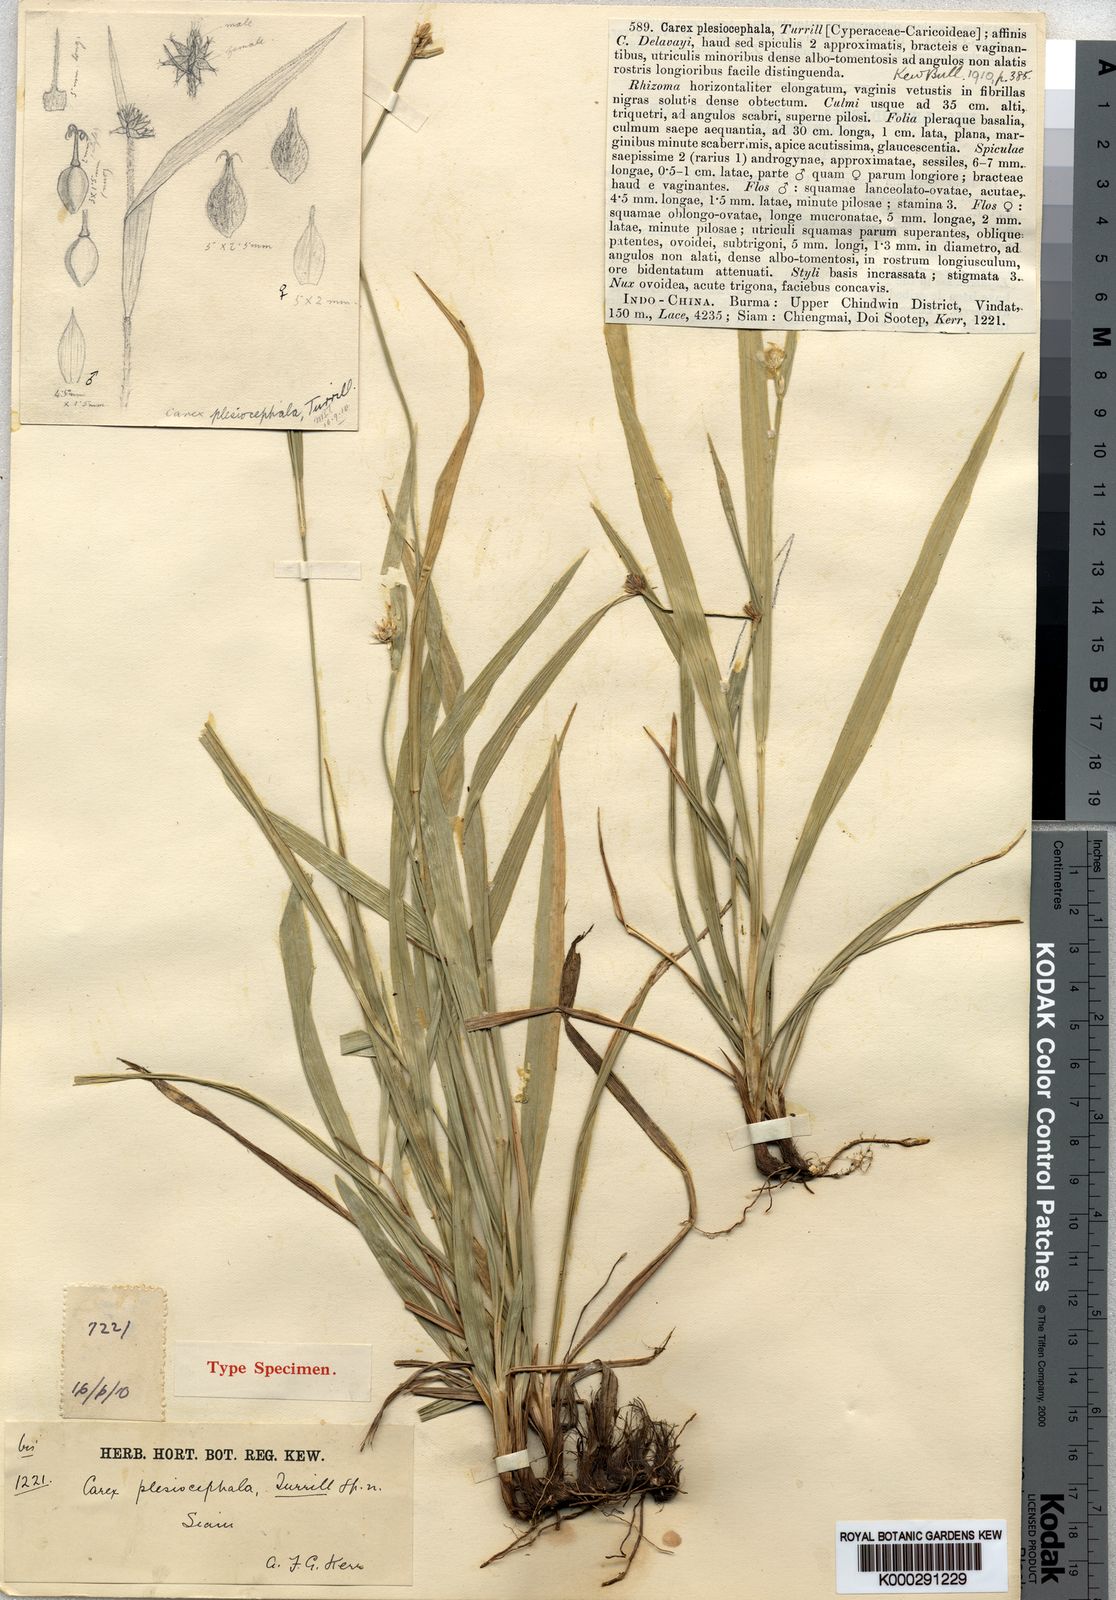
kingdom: Plantae
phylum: Tracheophyta
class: Liliopsida
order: Poales
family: Cyperaceae
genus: Carex
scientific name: Carex tricephala
